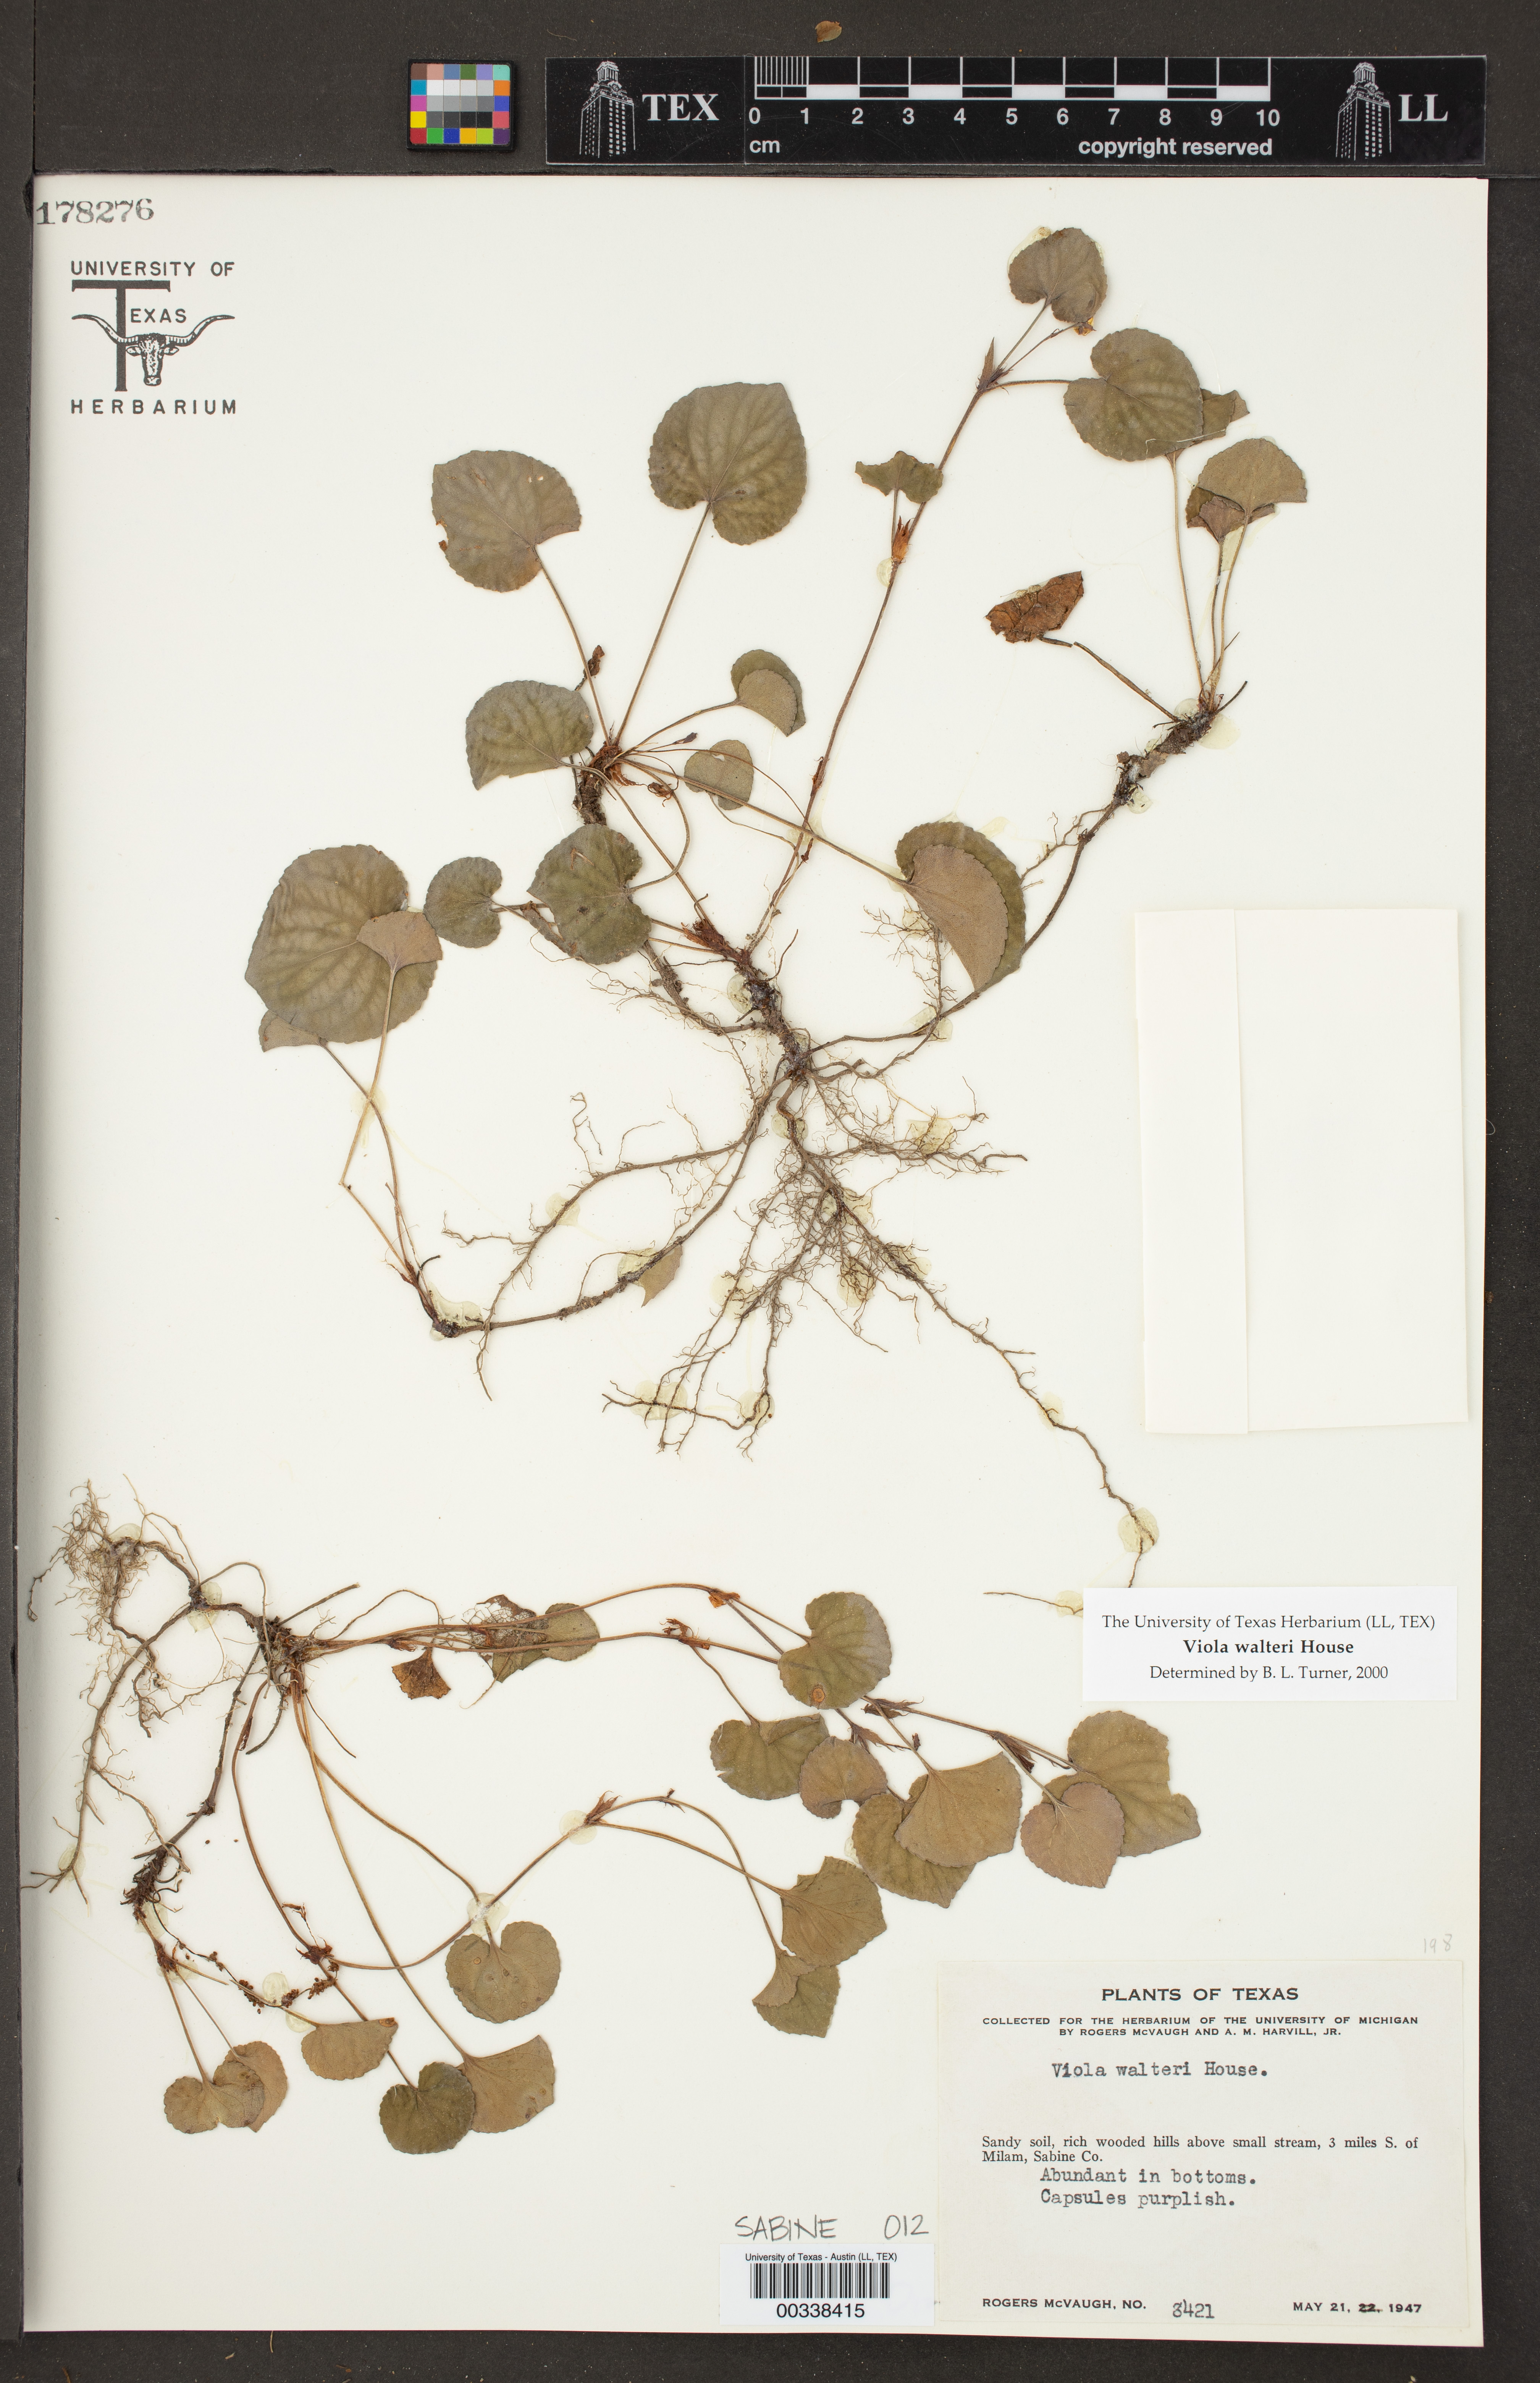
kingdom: Plantae
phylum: Tracheophyta
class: Magnoliopsida
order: Malpighiales
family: Violaceae
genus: Viola
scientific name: Viola walteri
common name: Prostrate southern violet
